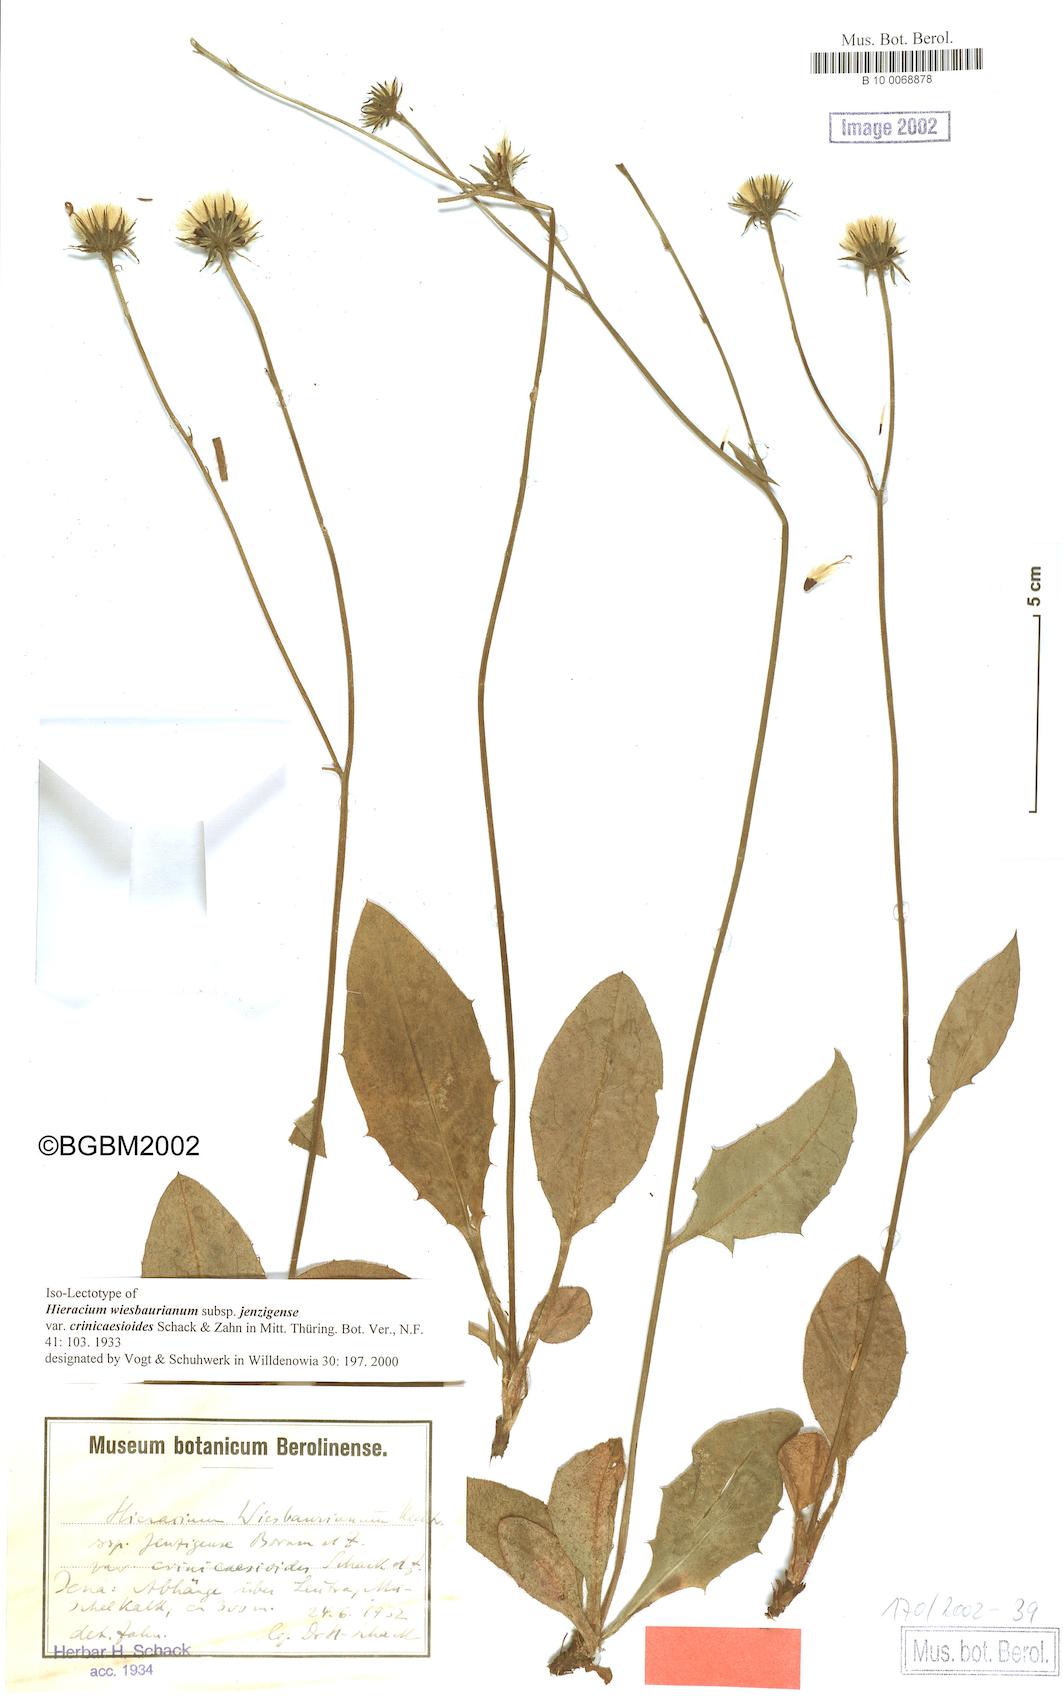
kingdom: Plantae
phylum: Tracheophyta
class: Magnoliopsida
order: Asterales
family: Asteraceae
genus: Hieracium
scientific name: Hieracium hypochoeroides
